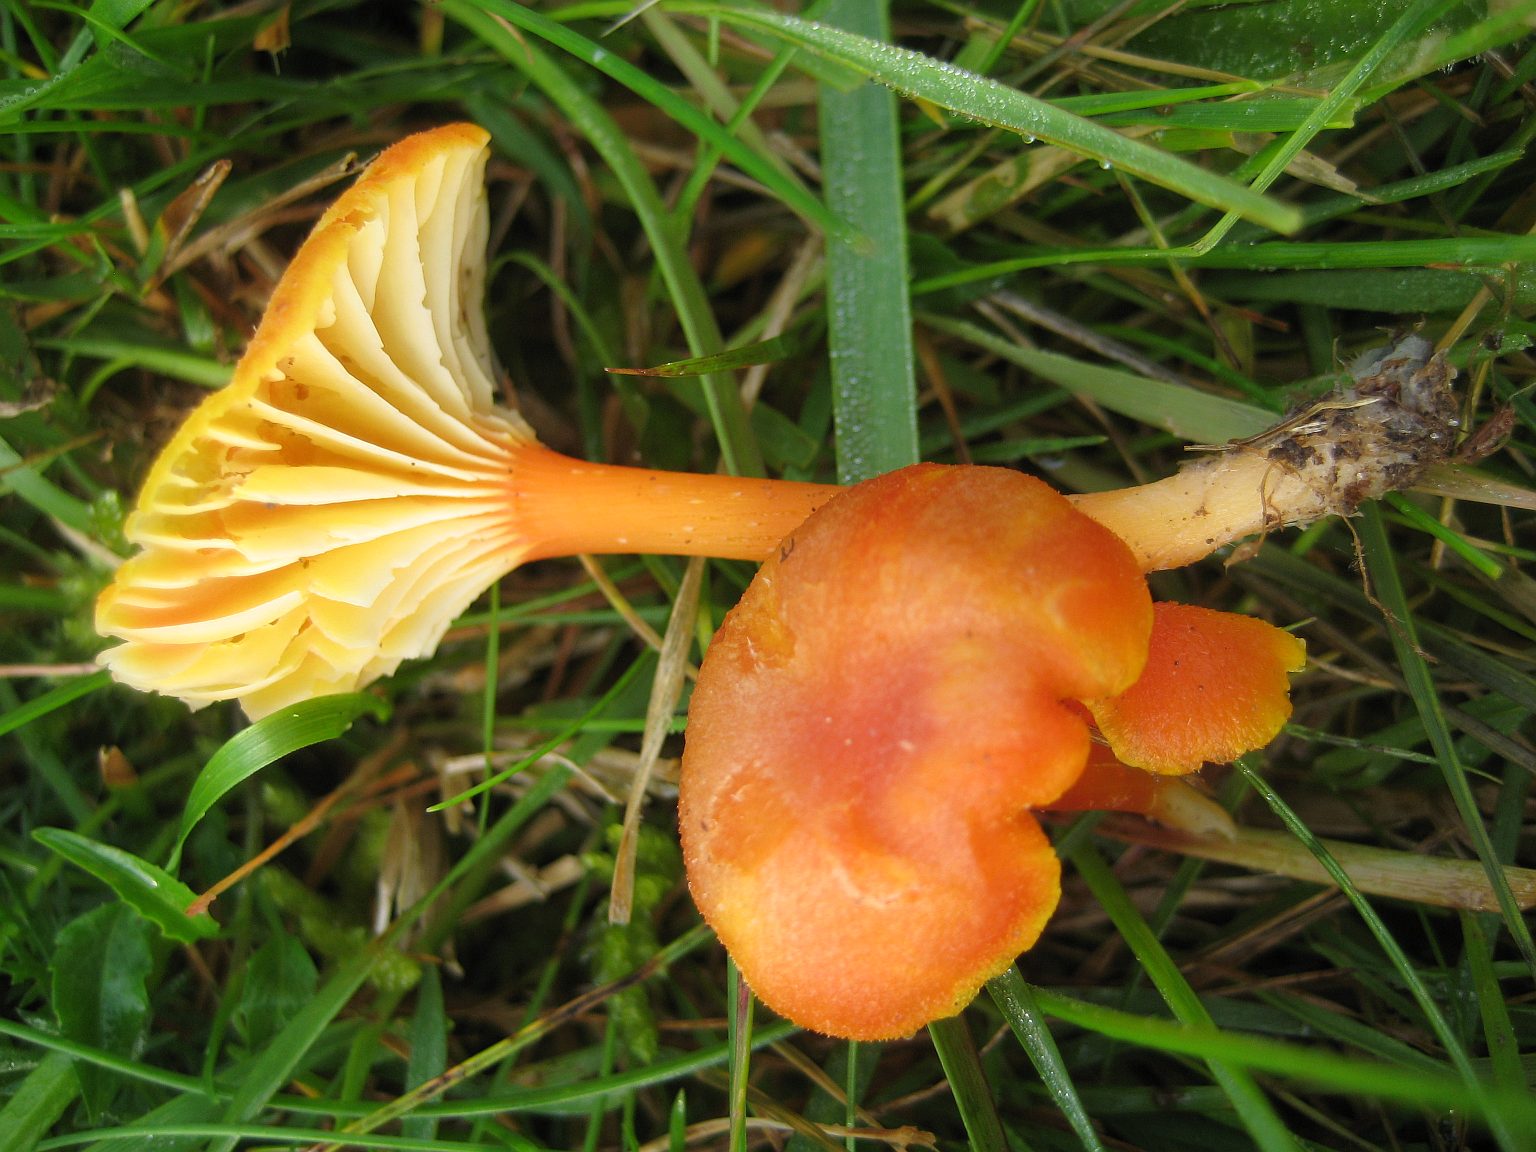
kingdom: Fungi
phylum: Basidiomycota
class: Agaricomycetes
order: Agaricales
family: Hygrophoraceae
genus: Hygrocybe
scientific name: Hygrocybe cantharellus
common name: kantarel-vokshat
